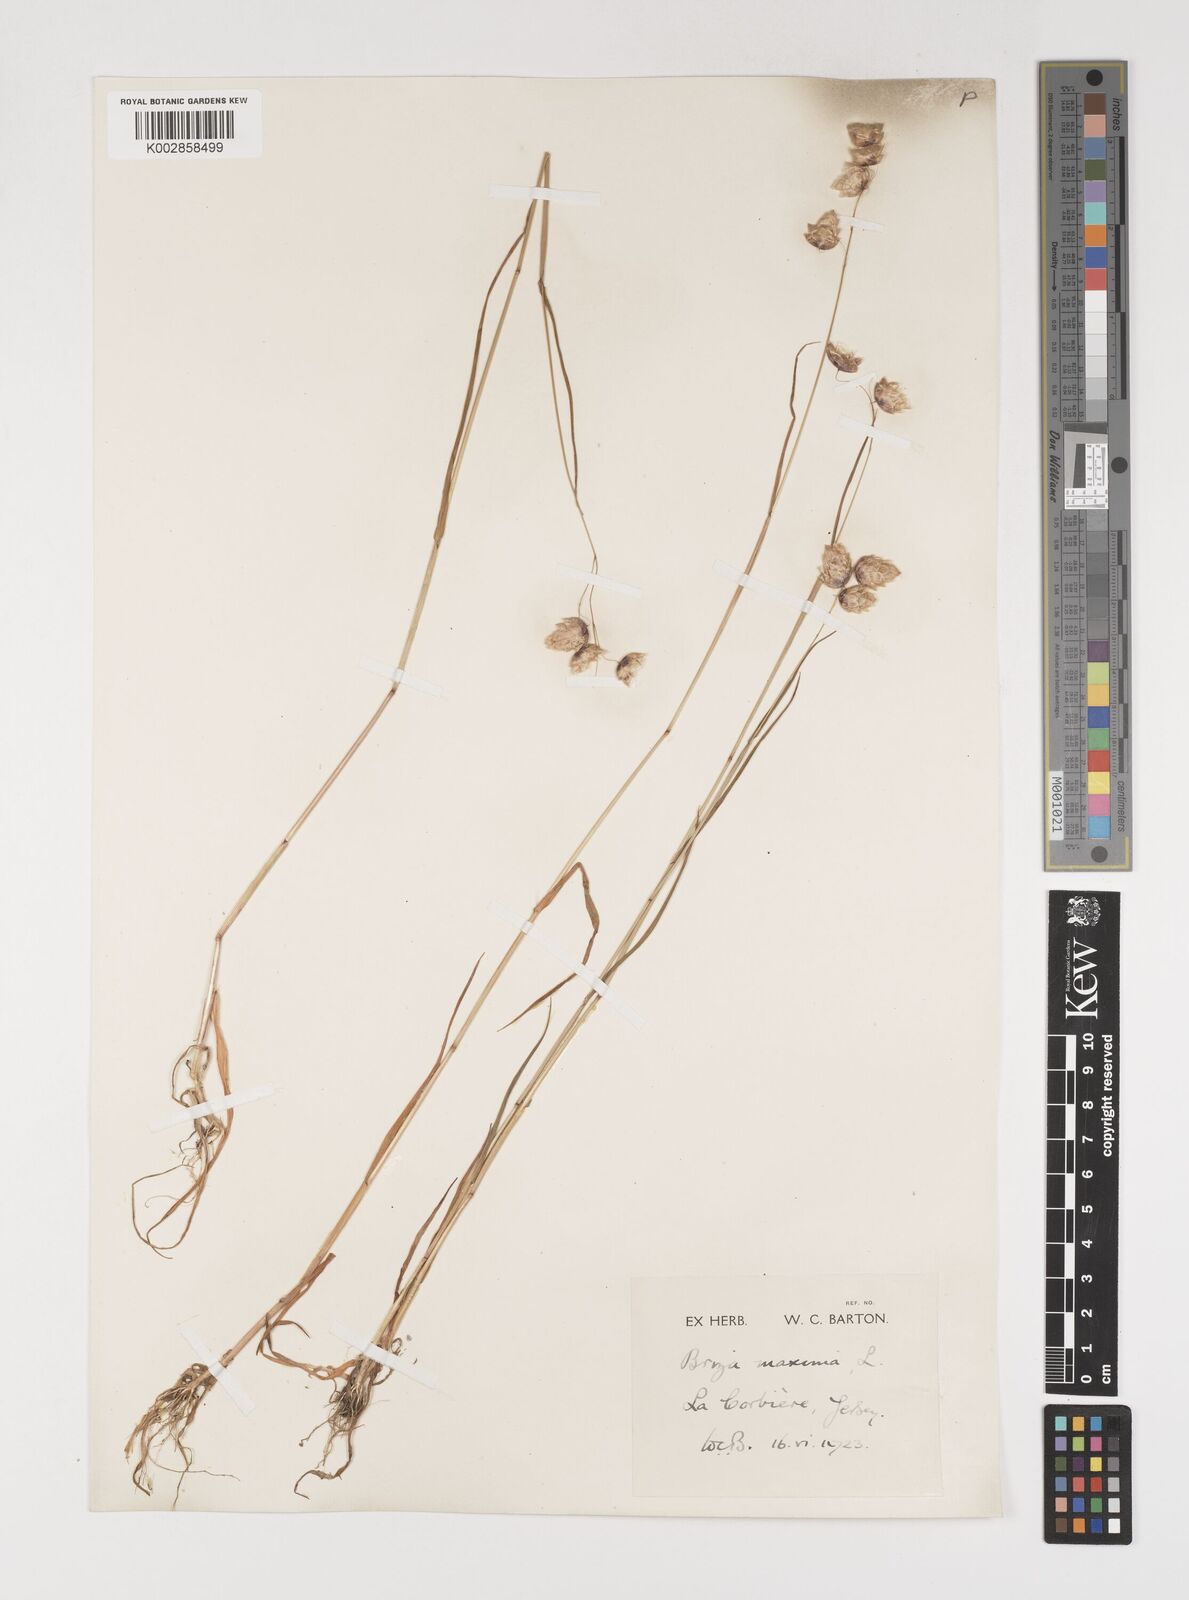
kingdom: Plantae
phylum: Tracheophyta
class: Liliopsida
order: Poales
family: Poaceae
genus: Briza
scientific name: Briza maxima
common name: Big quakinggrass
